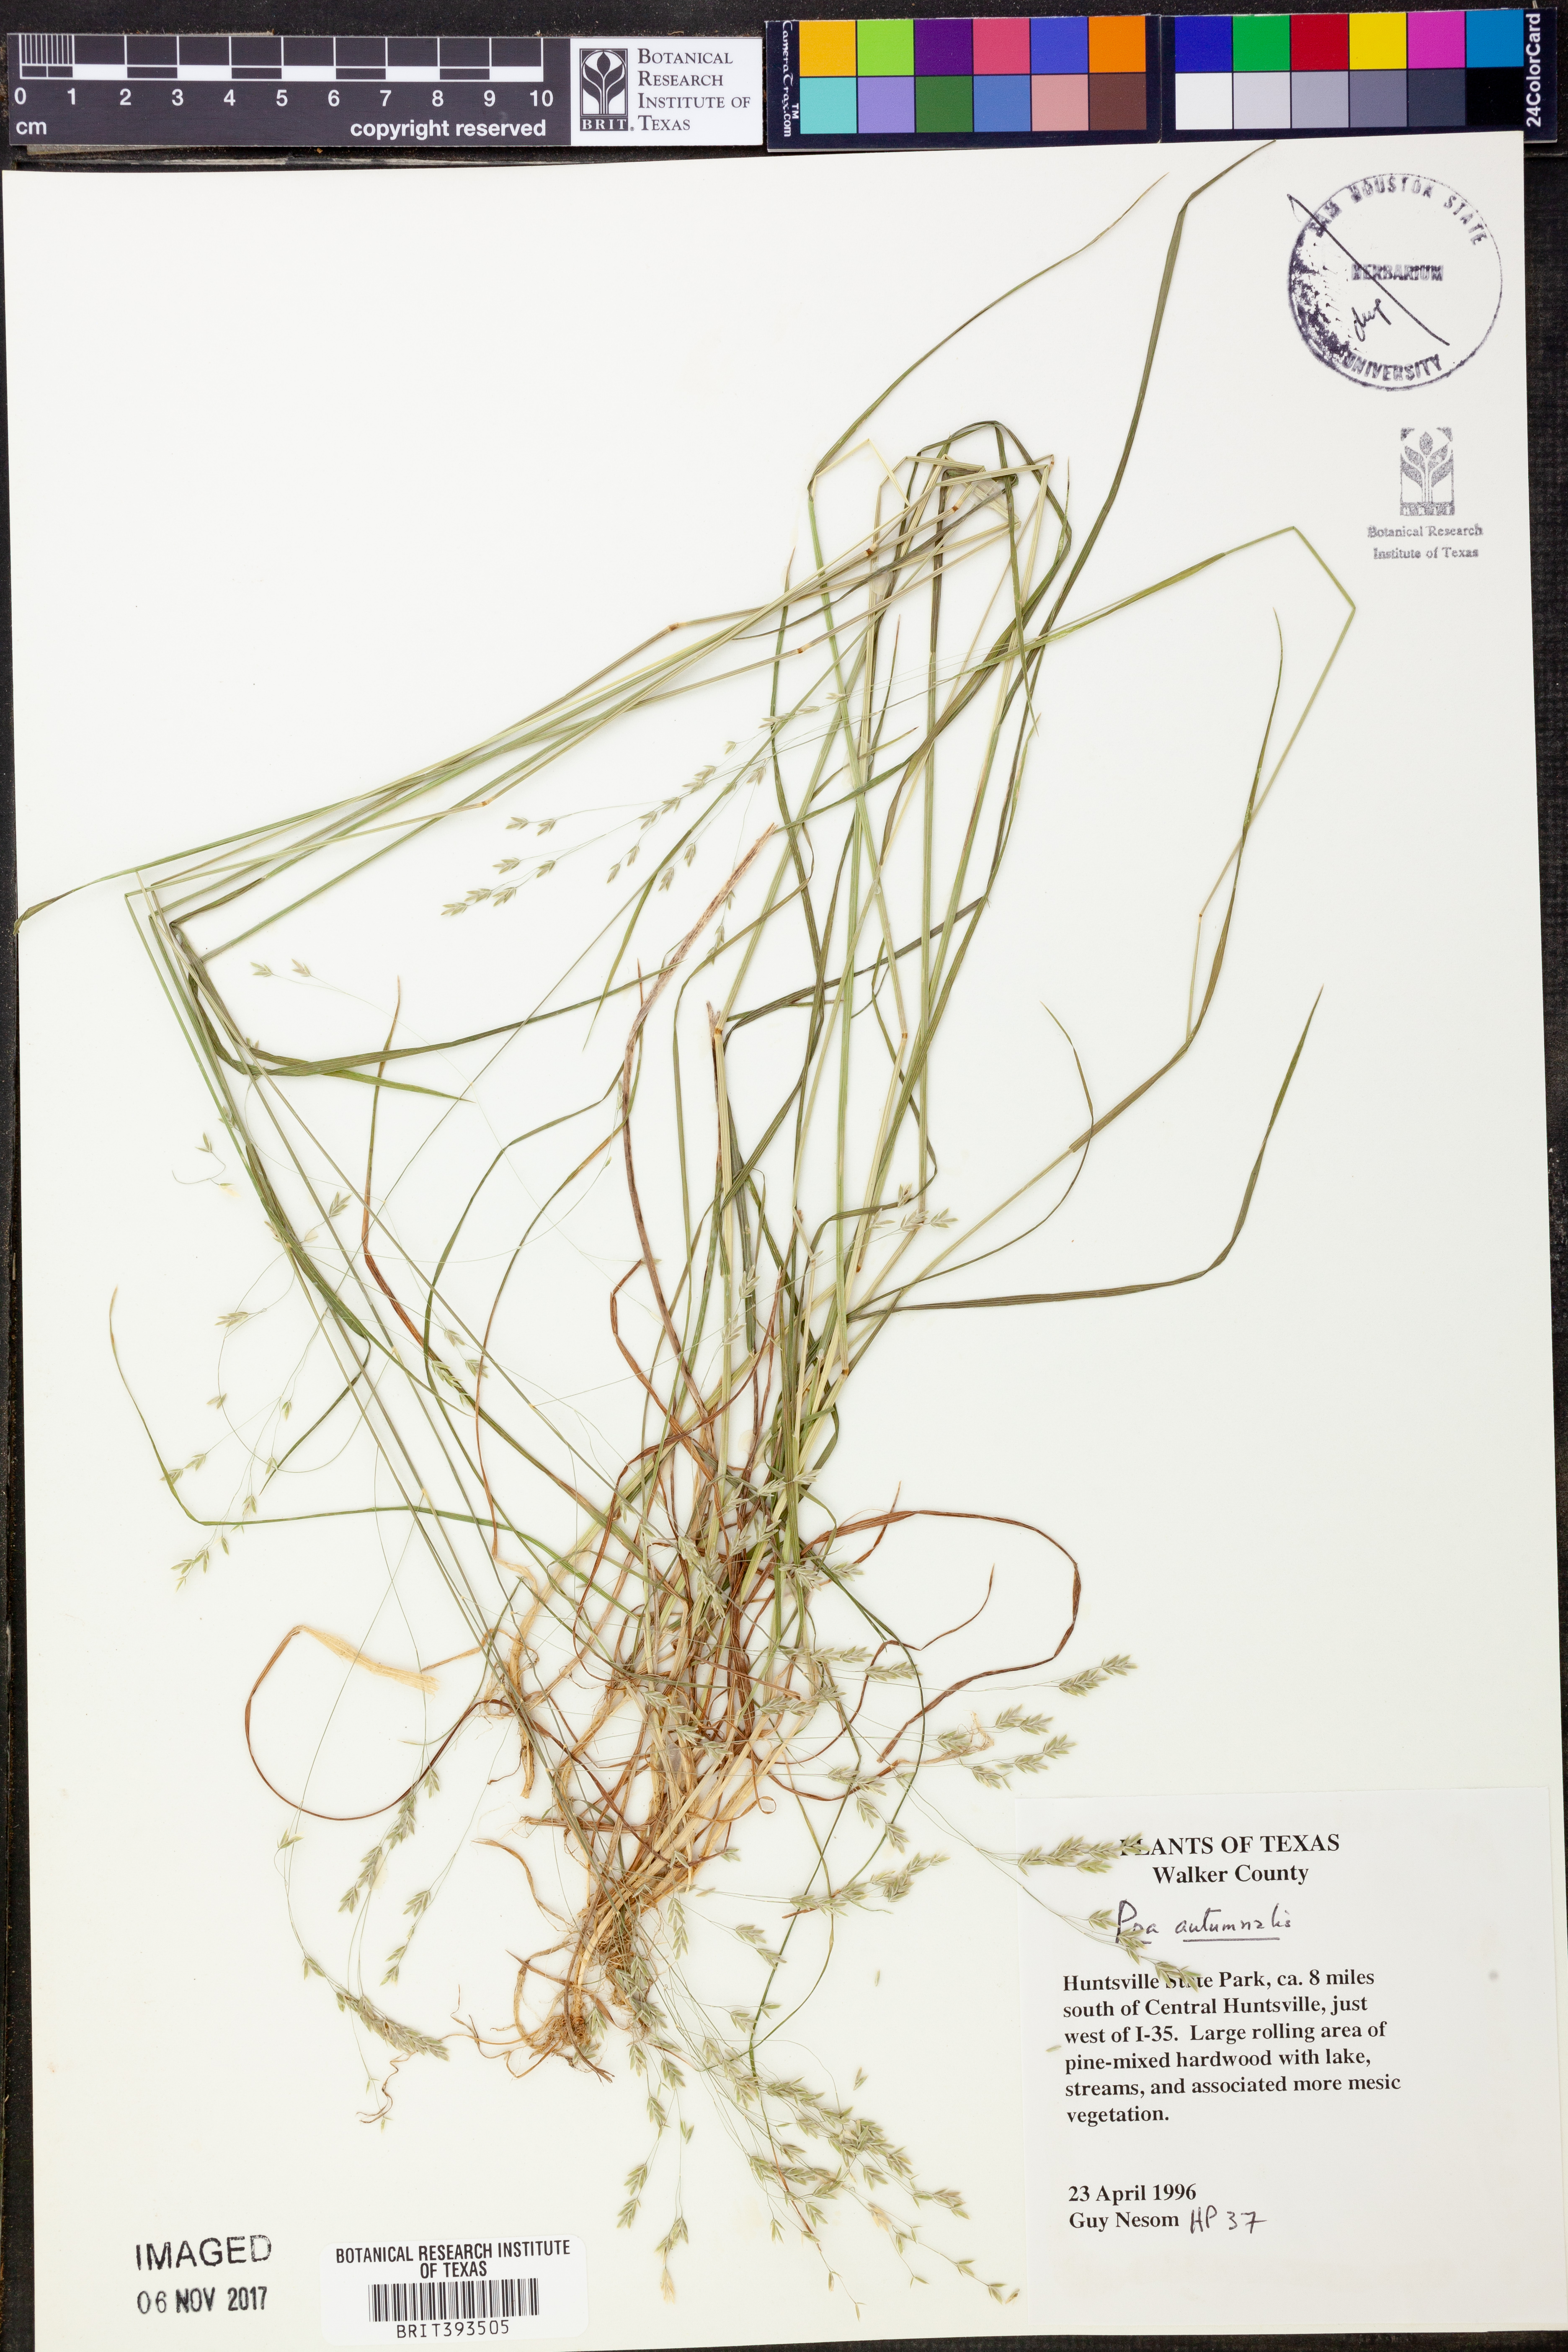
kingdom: Plantae
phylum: Tracheophyta
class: Liliopsida
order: Poales
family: Poaceae
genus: Poa
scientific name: Poa autumnalis
